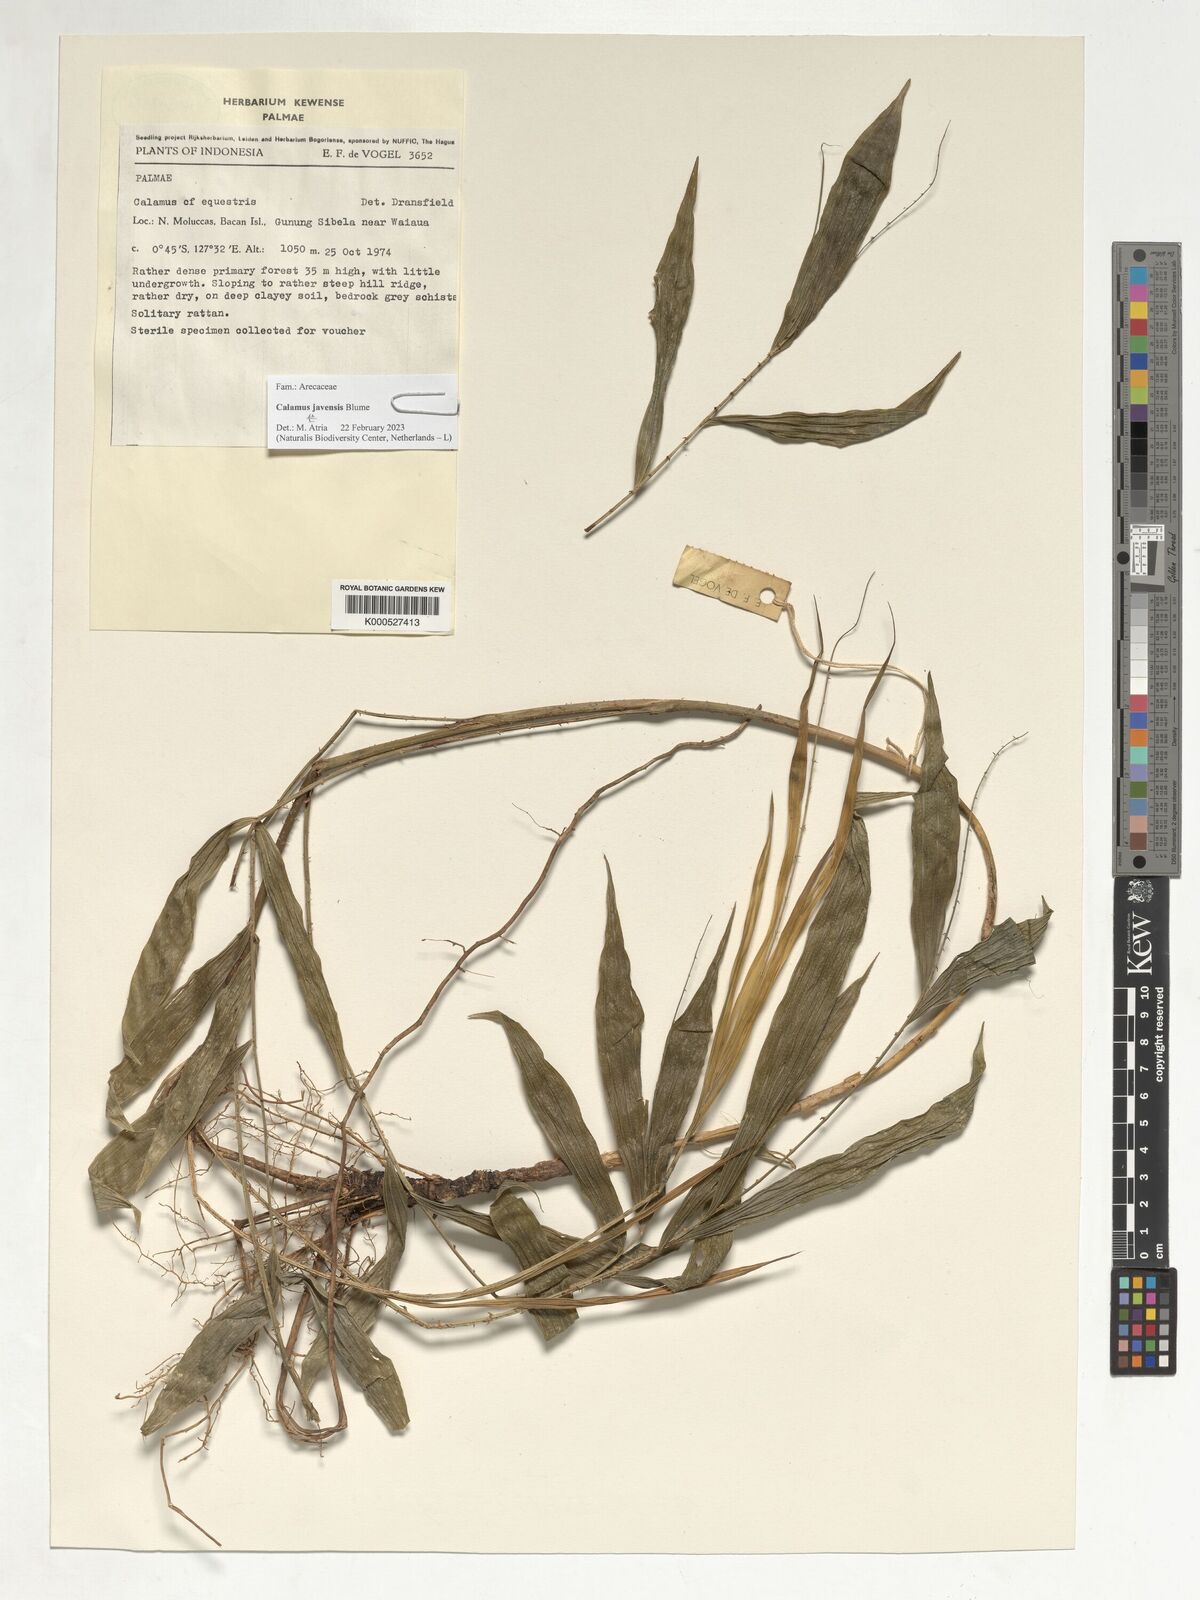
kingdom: Plantae
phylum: Tracheophyta
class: Liliopsida
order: Arecales
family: Arecaceae
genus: Calamus
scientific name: Calamus javensis
